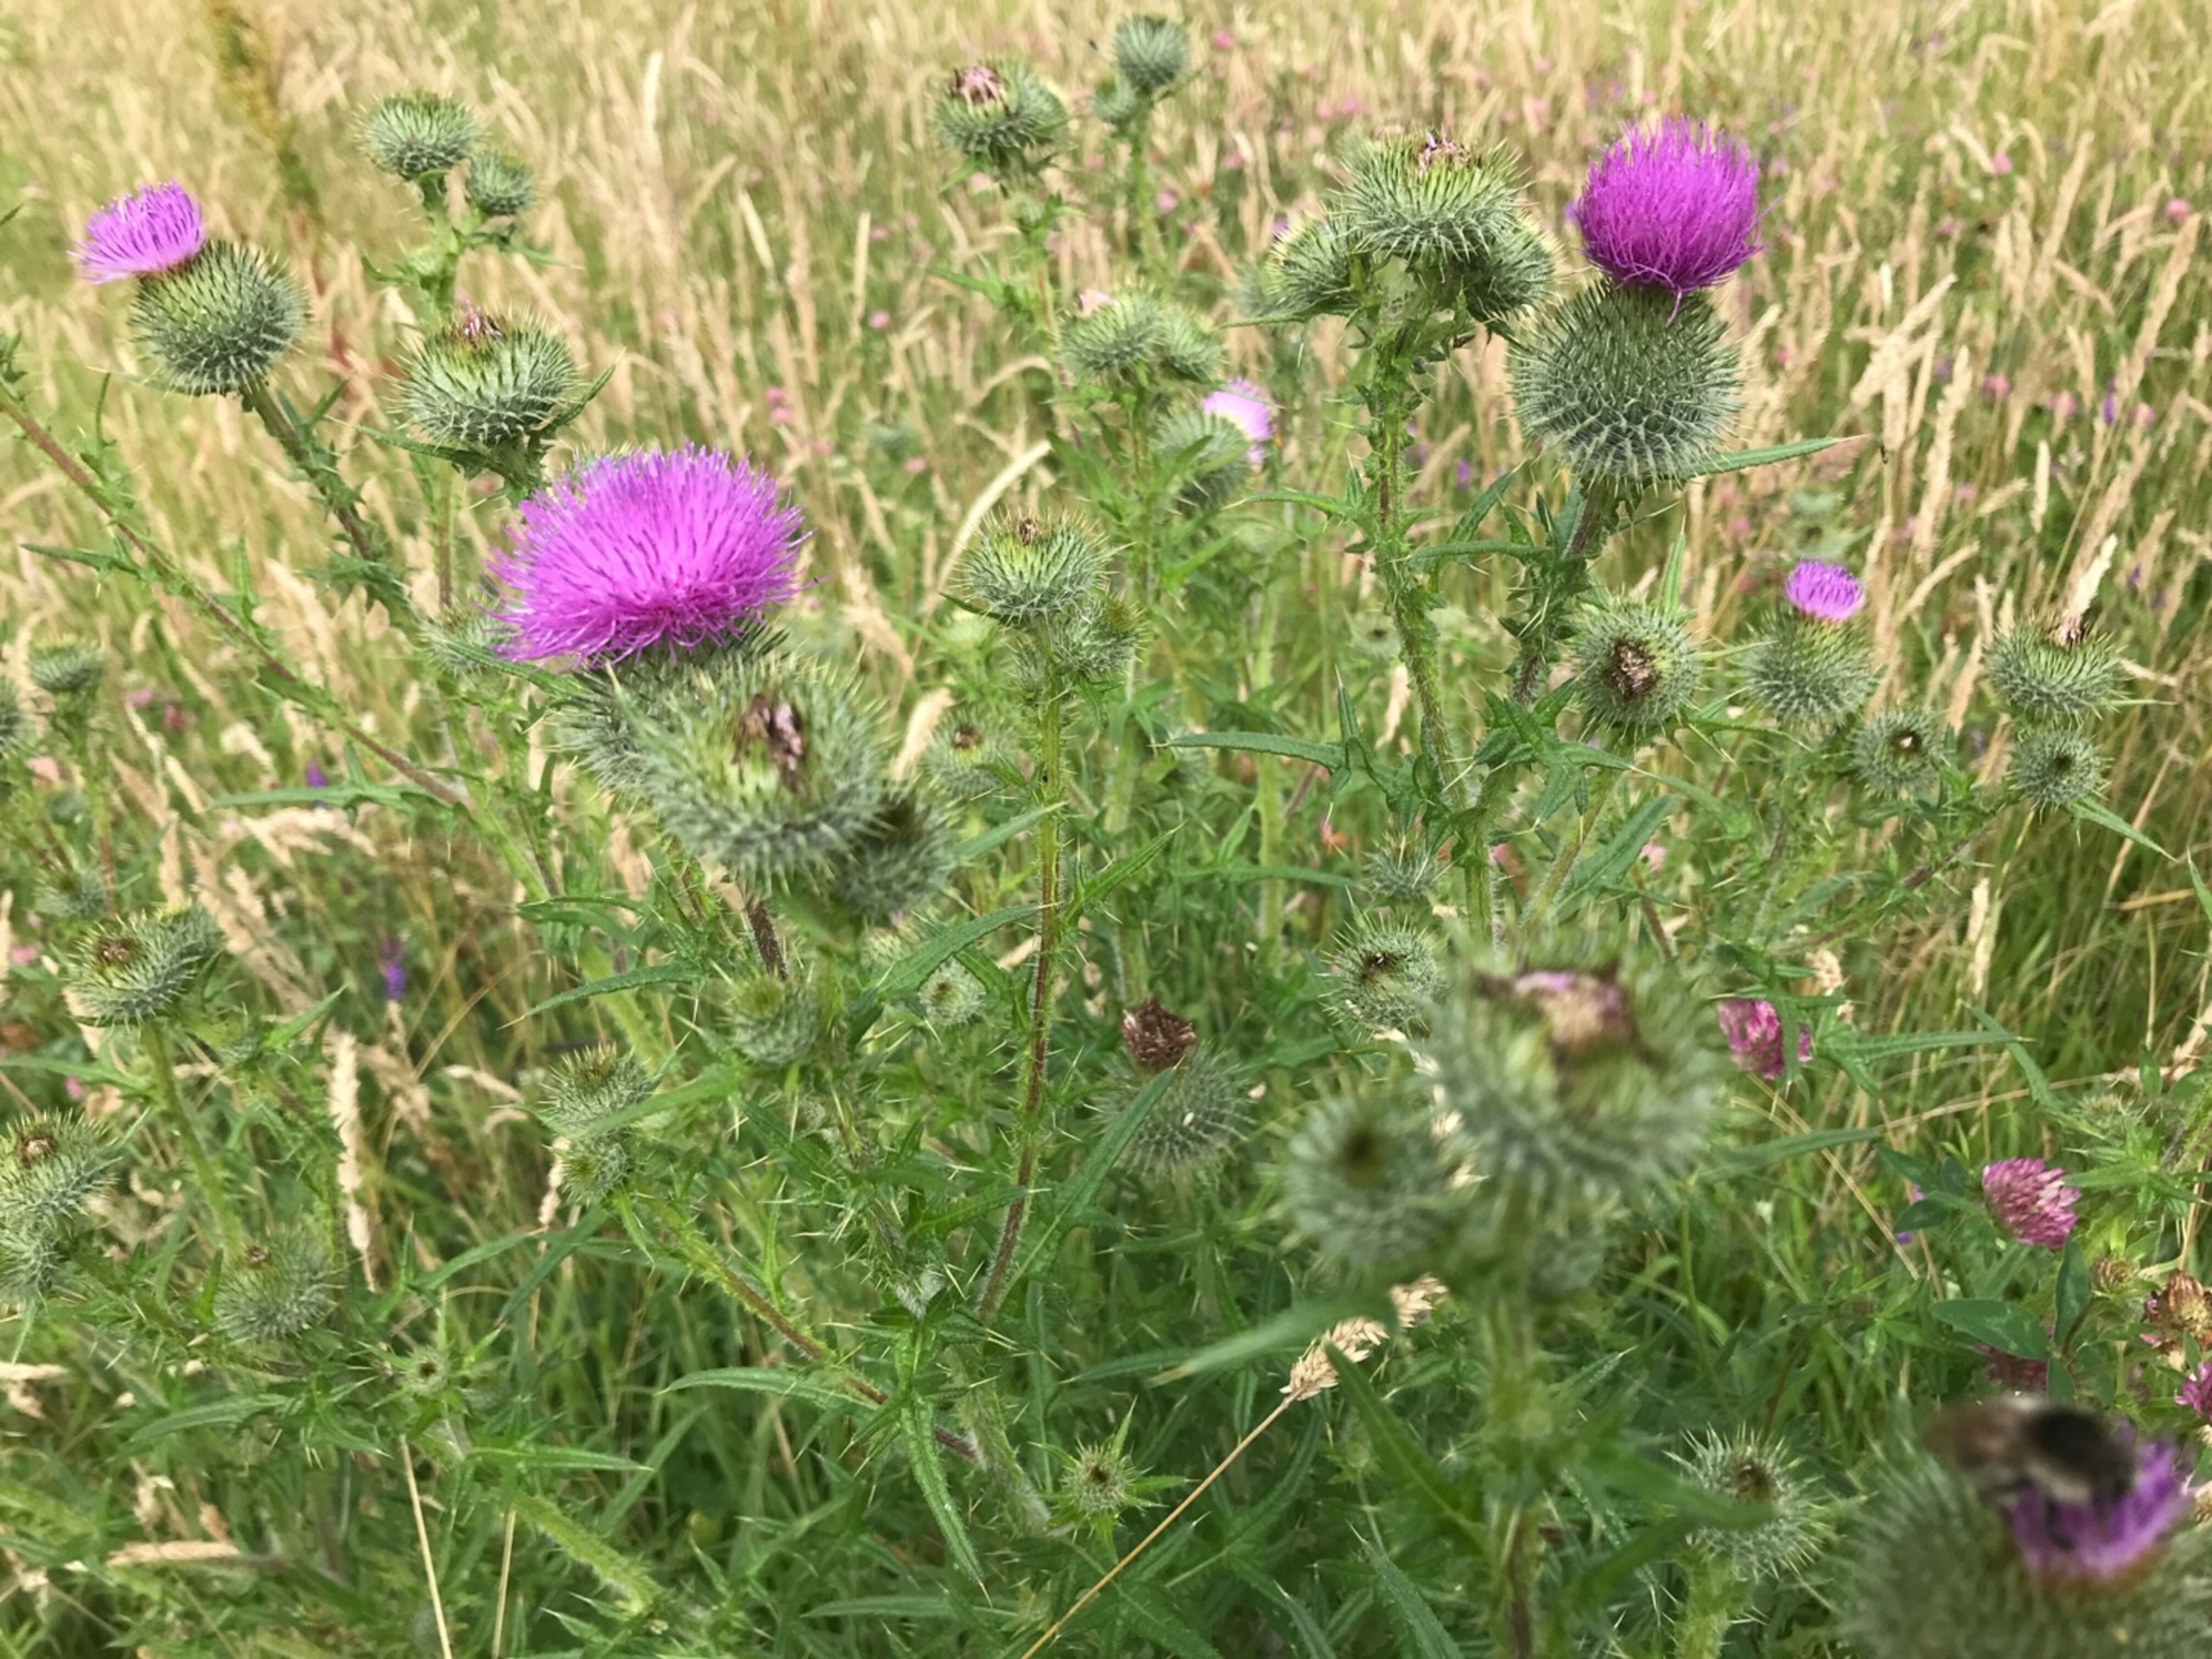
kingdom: Plantae
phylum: Tracheophyta
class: Magnoliopsida
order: Asterales
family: Asteraceae
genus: Cirsium
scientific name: Cirsium vulgare
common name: Horse-tidsel
